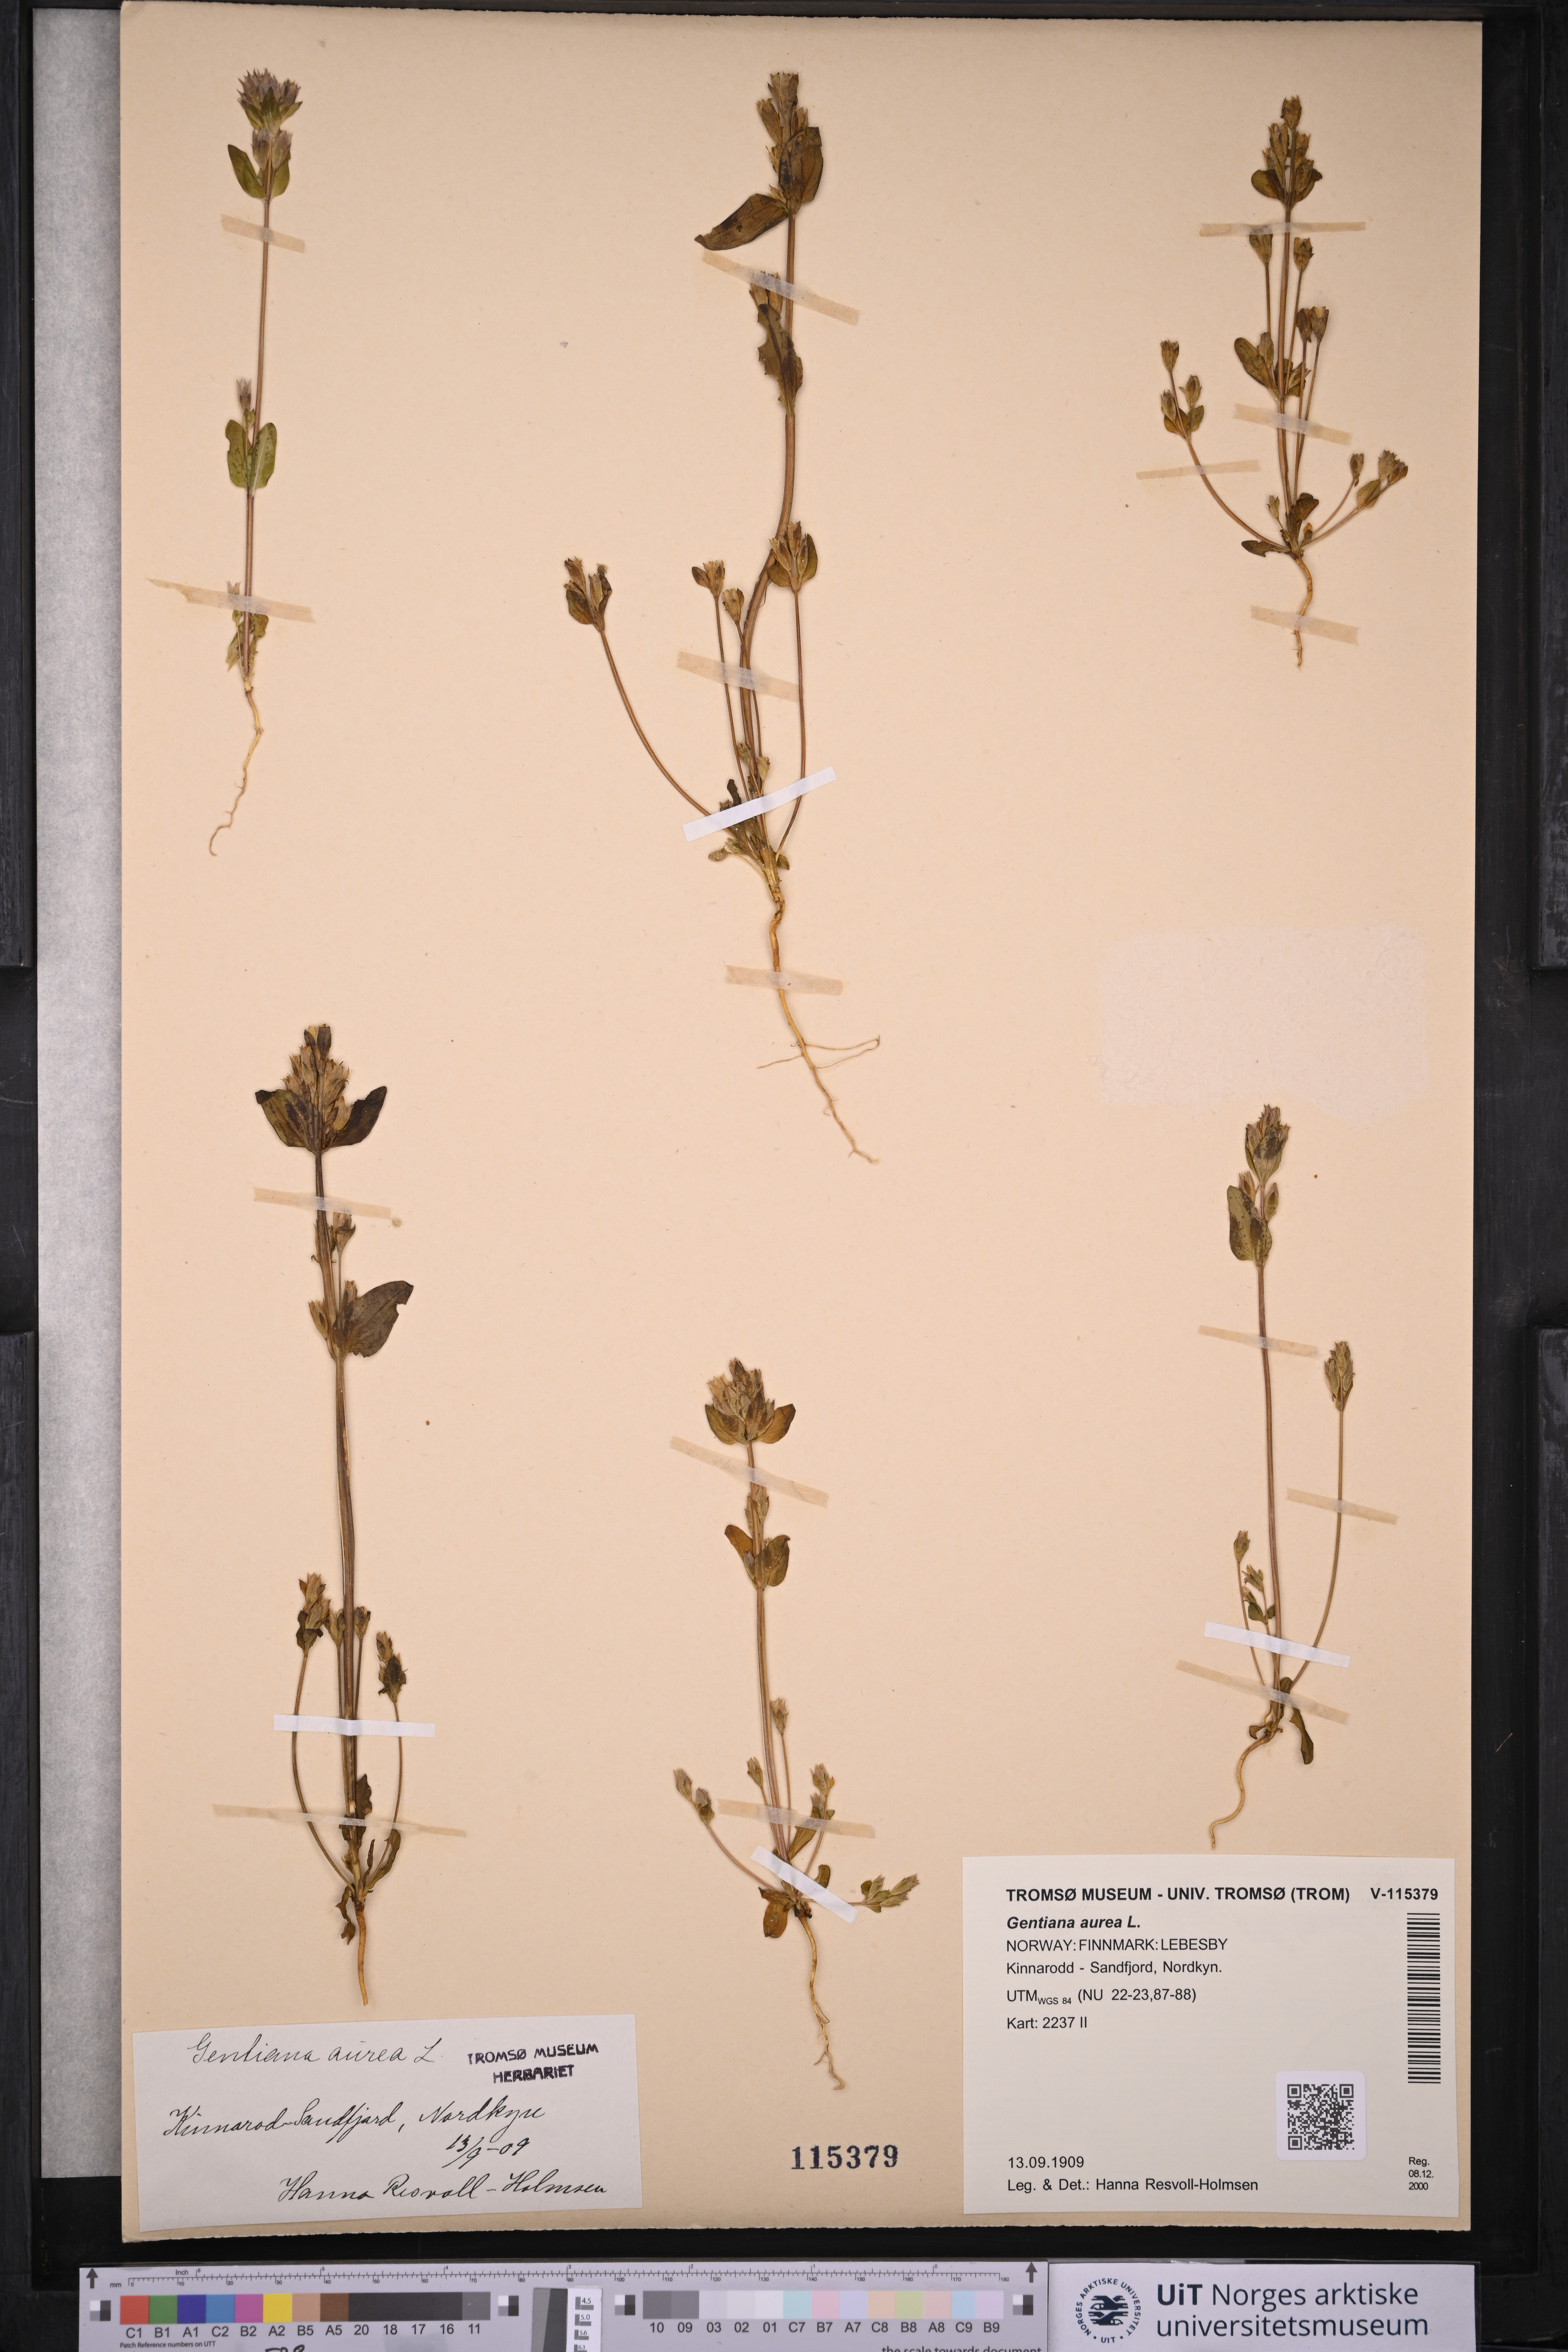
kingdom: Plantae
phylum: Tracheophyta
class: Magnoliopsida
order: Gentianales
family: Gentianaceae
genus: Gentianella
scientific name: Gentianella aurea
